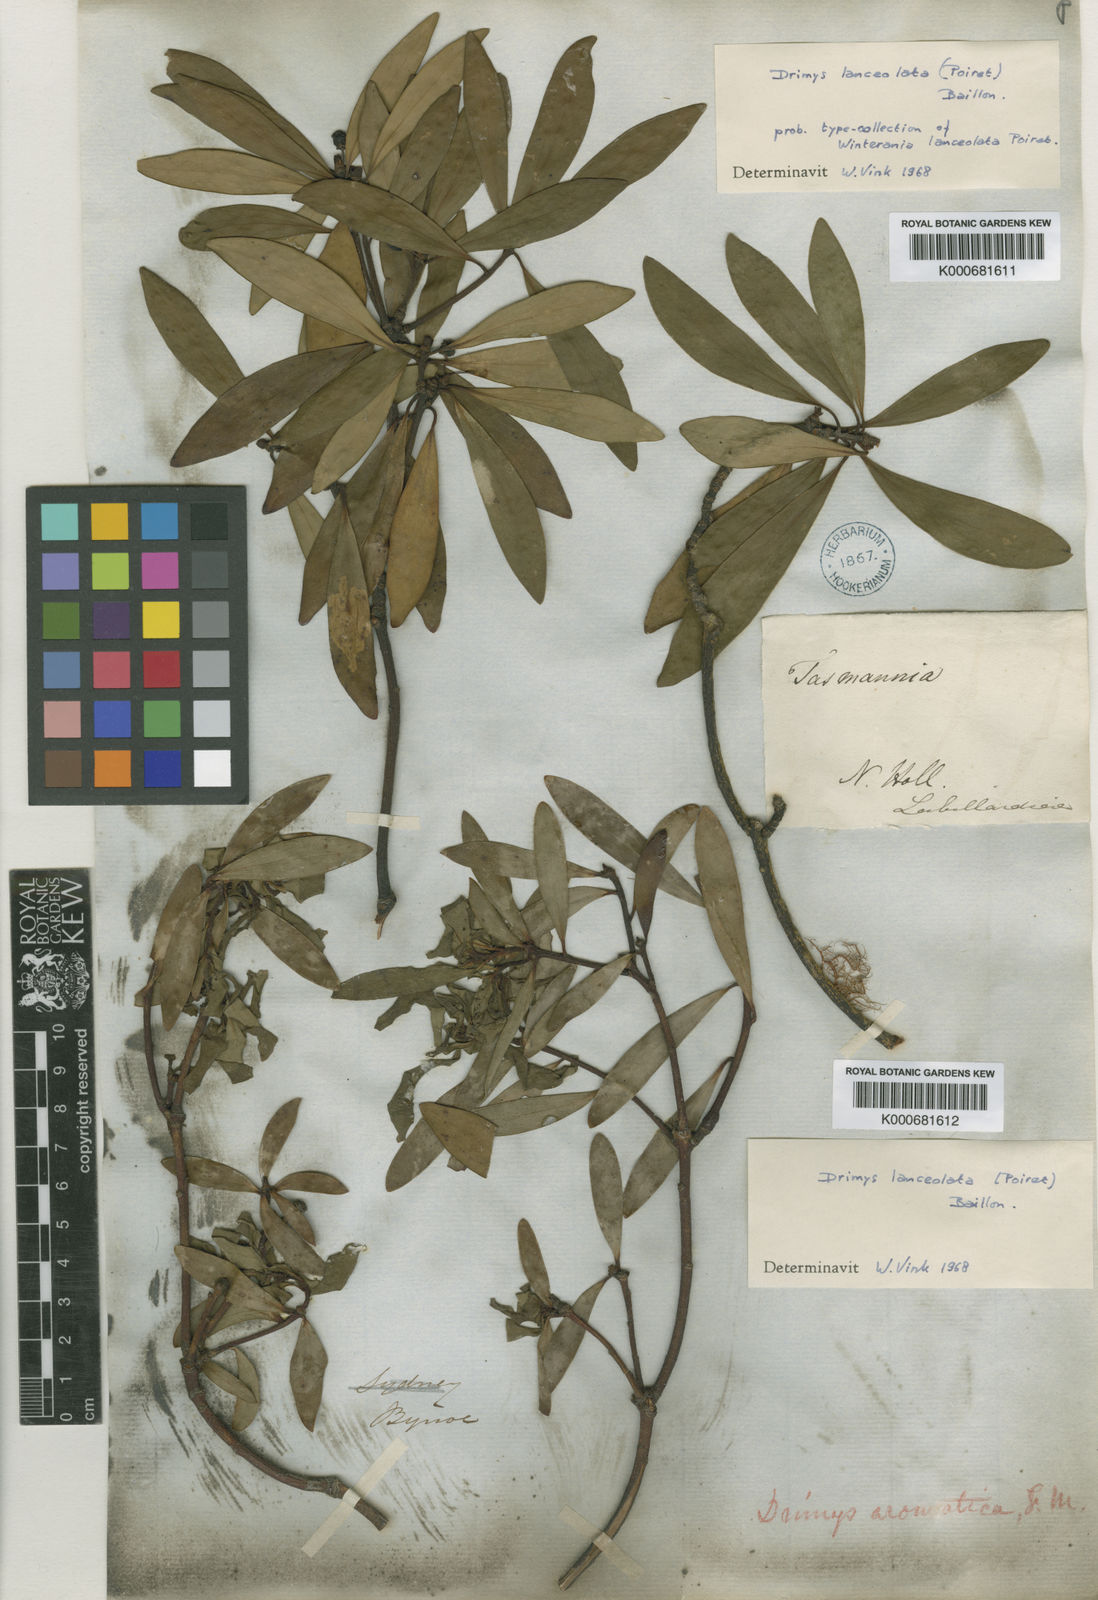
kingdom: Plantae
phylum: Tracheophyta
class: Magnoliopsida
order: Canellales
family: Winteraceae
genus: Drimys
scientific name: Drimys aromatica
